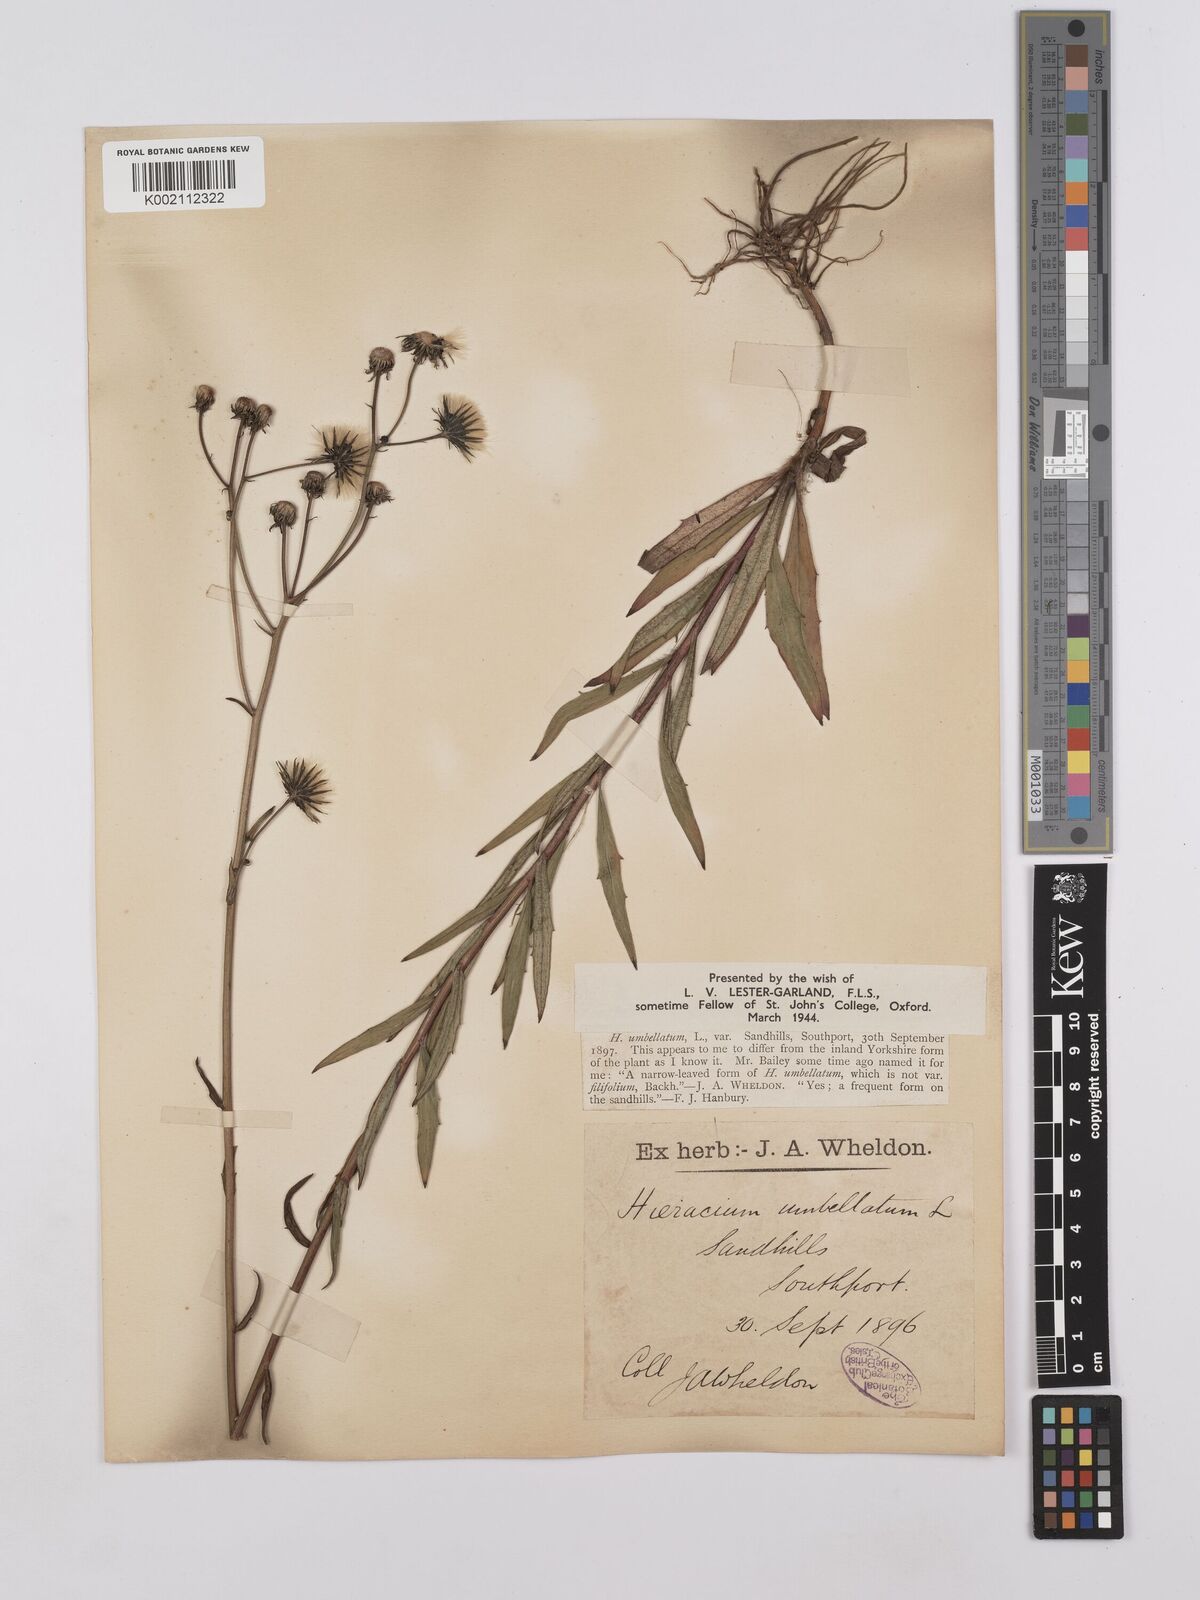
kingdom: Plantae
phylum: Tracheophyta
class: Magnoliopsida
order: Asterales
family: Asteraceae
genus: Hieracium
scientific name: Hieracium umbellatum
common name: Northern hawkweed
